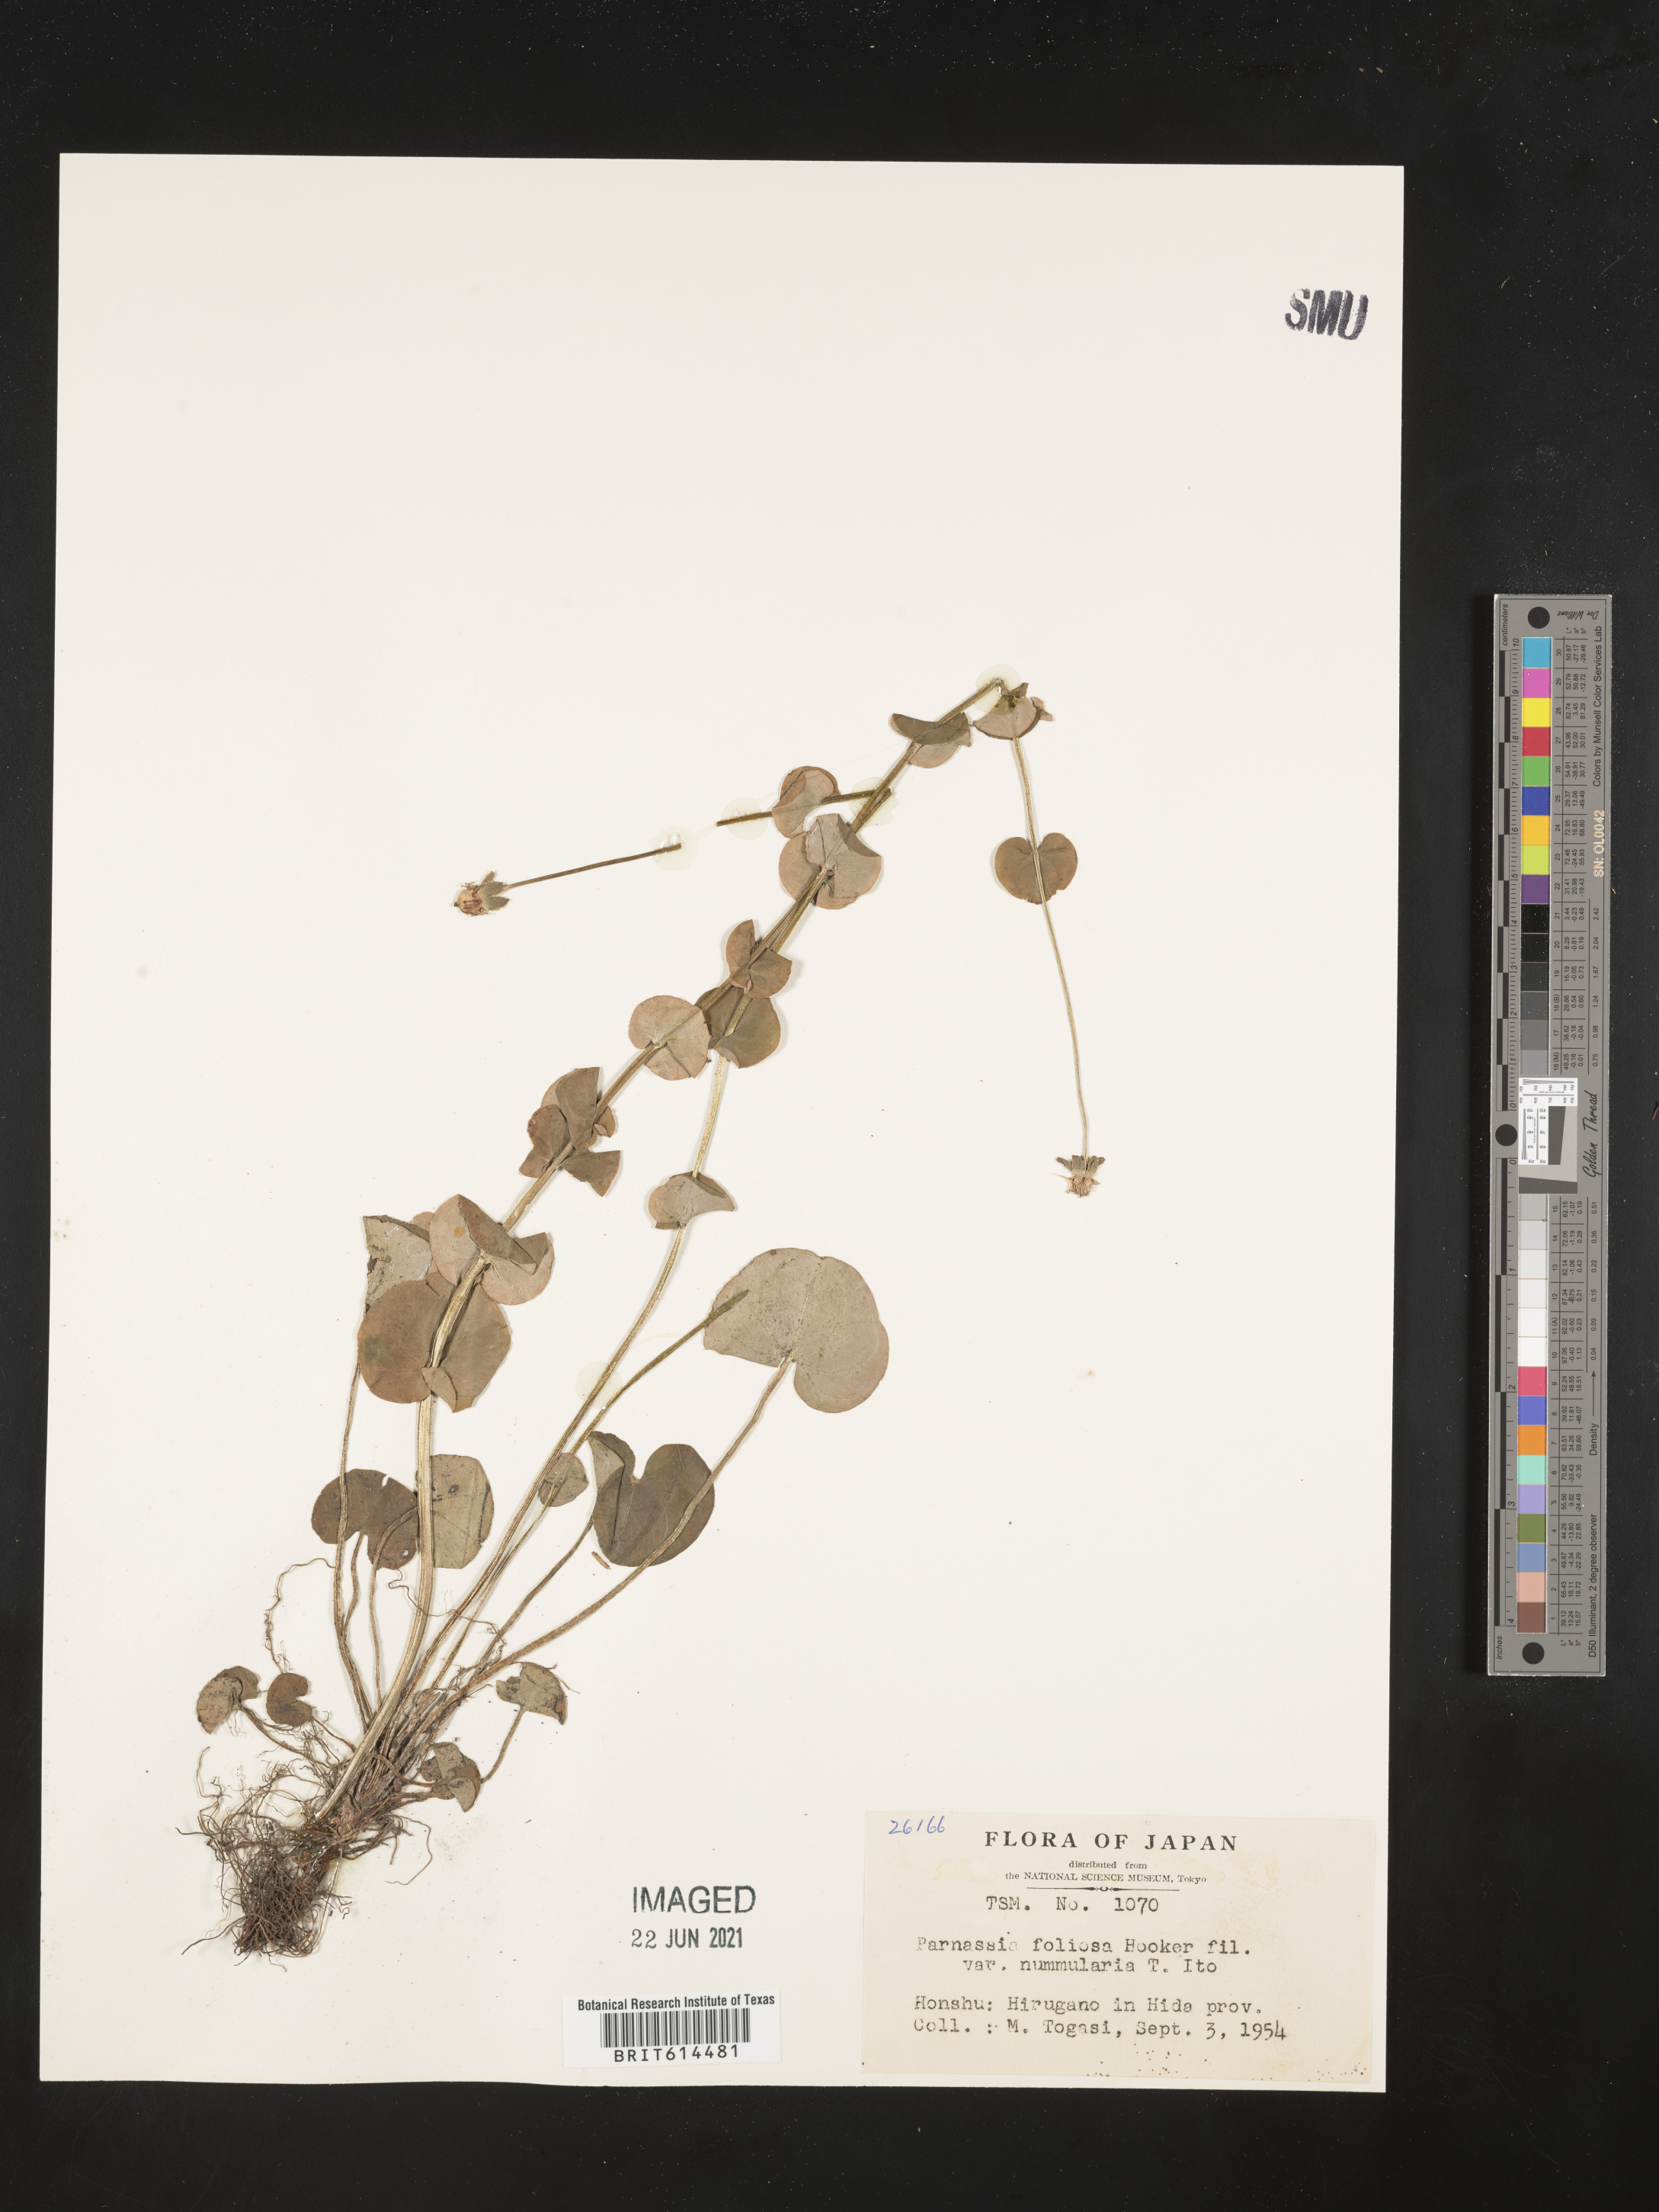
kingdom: Plantae
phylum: Tracheophyta
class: Magnoliopsida
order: Celastrales
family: Parnassiaceae
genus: Parnassia
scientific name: Parnassia foliosa
